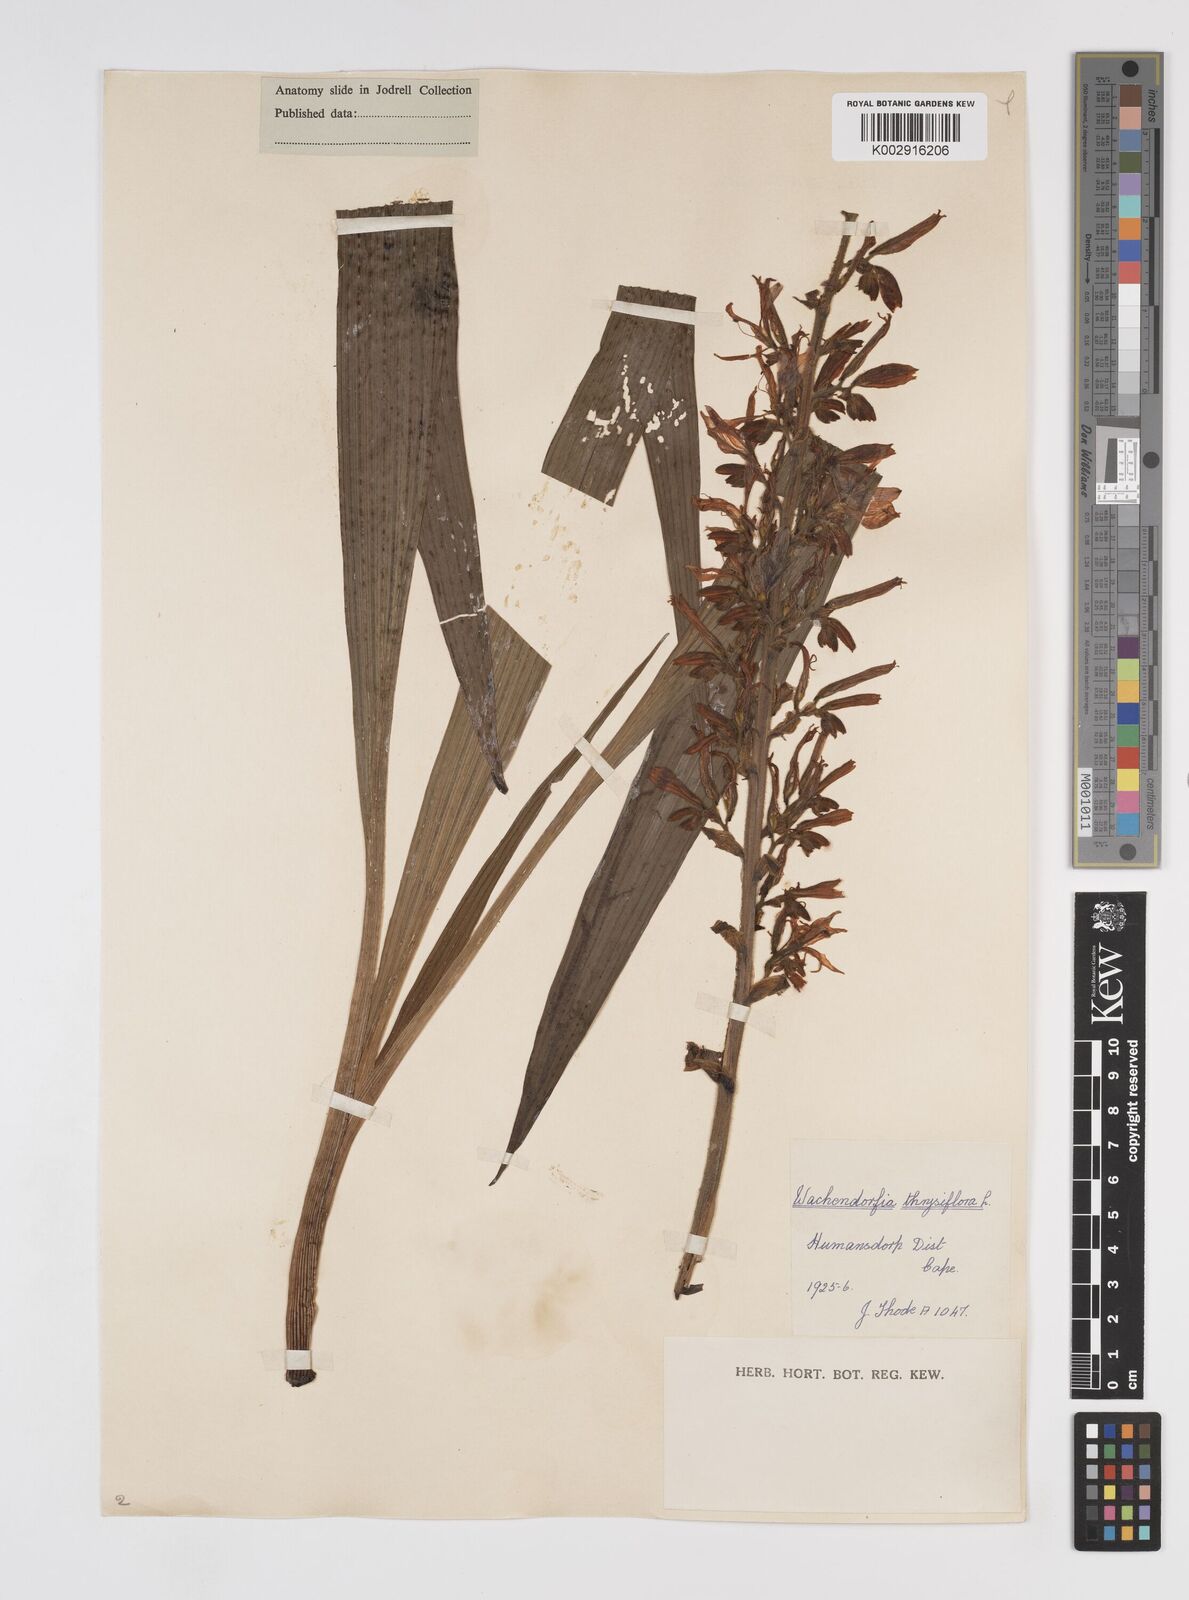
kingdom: Plantae
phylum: Tracheophyta
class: Liliopsida
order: Commelinales
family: Haemodoraceae
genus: Wachendorfia
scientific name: Wachendorfia thyrsiflora
